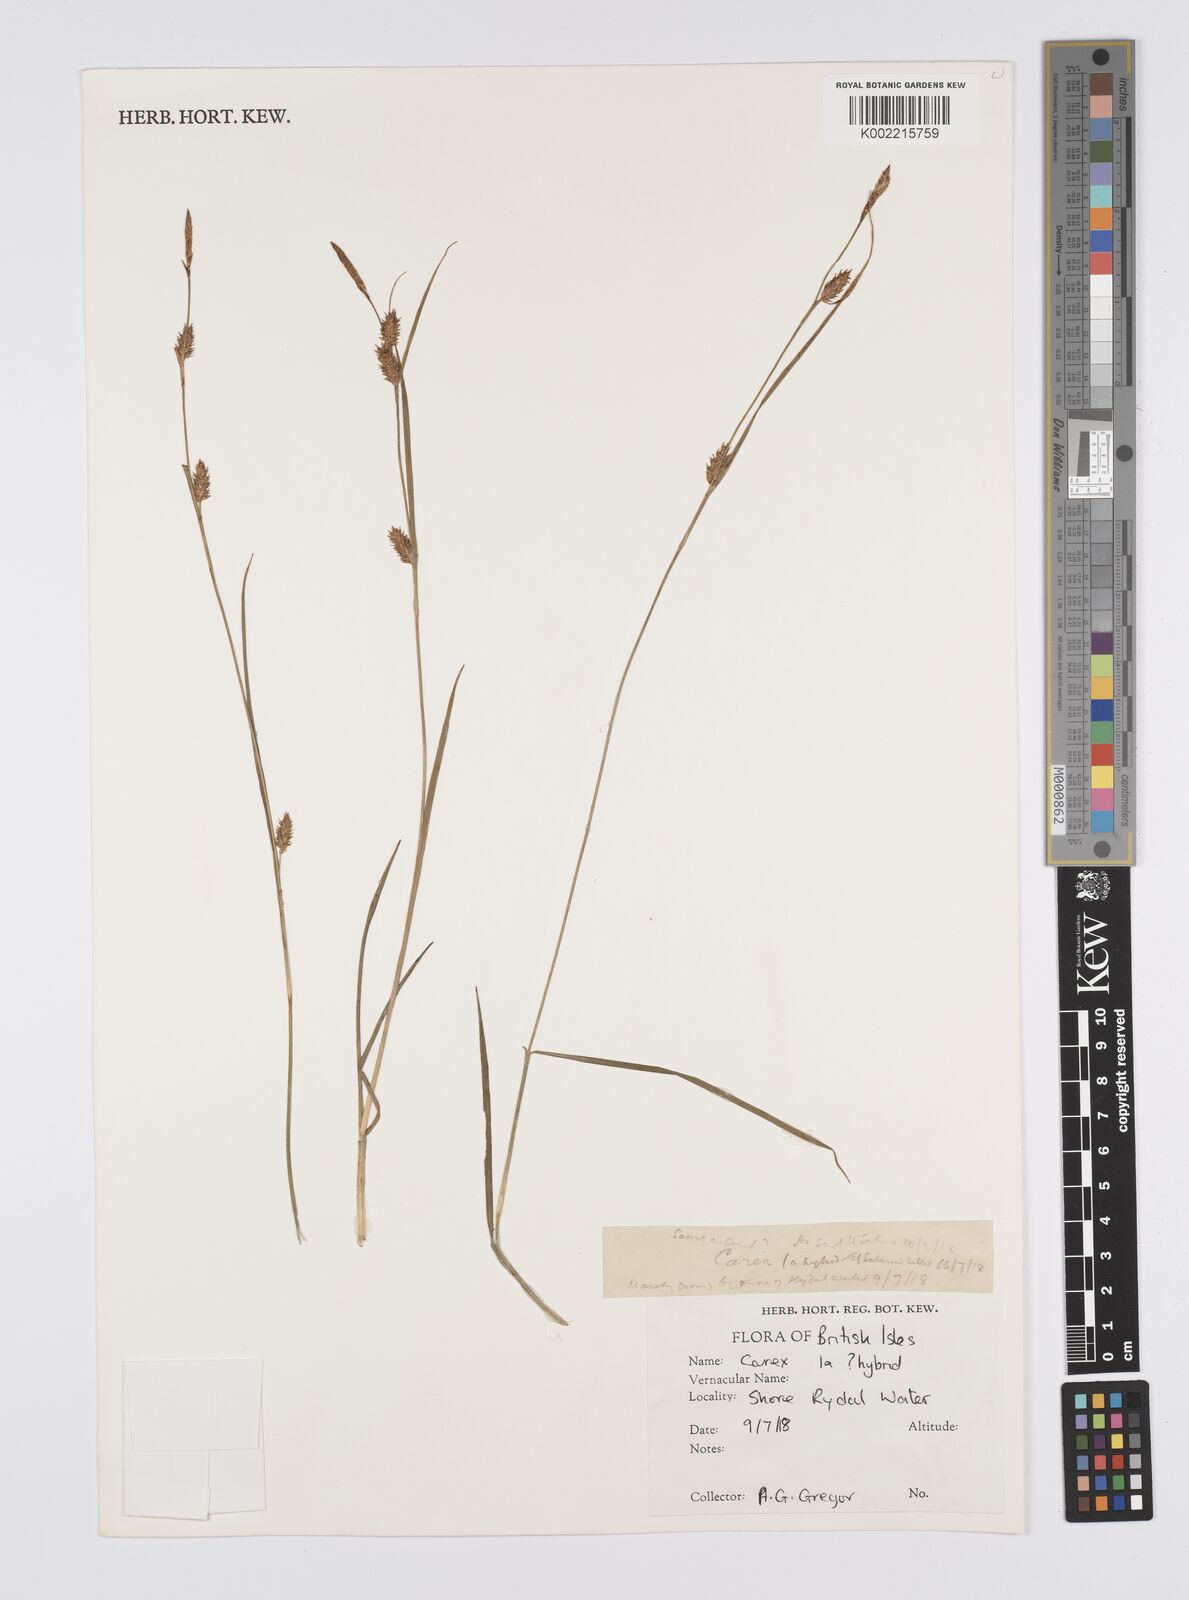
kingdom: Plantae
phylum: Tracheophyta
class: Liliopsida
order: Poales
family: Cyperaceae
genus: Carex
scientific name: Carex
